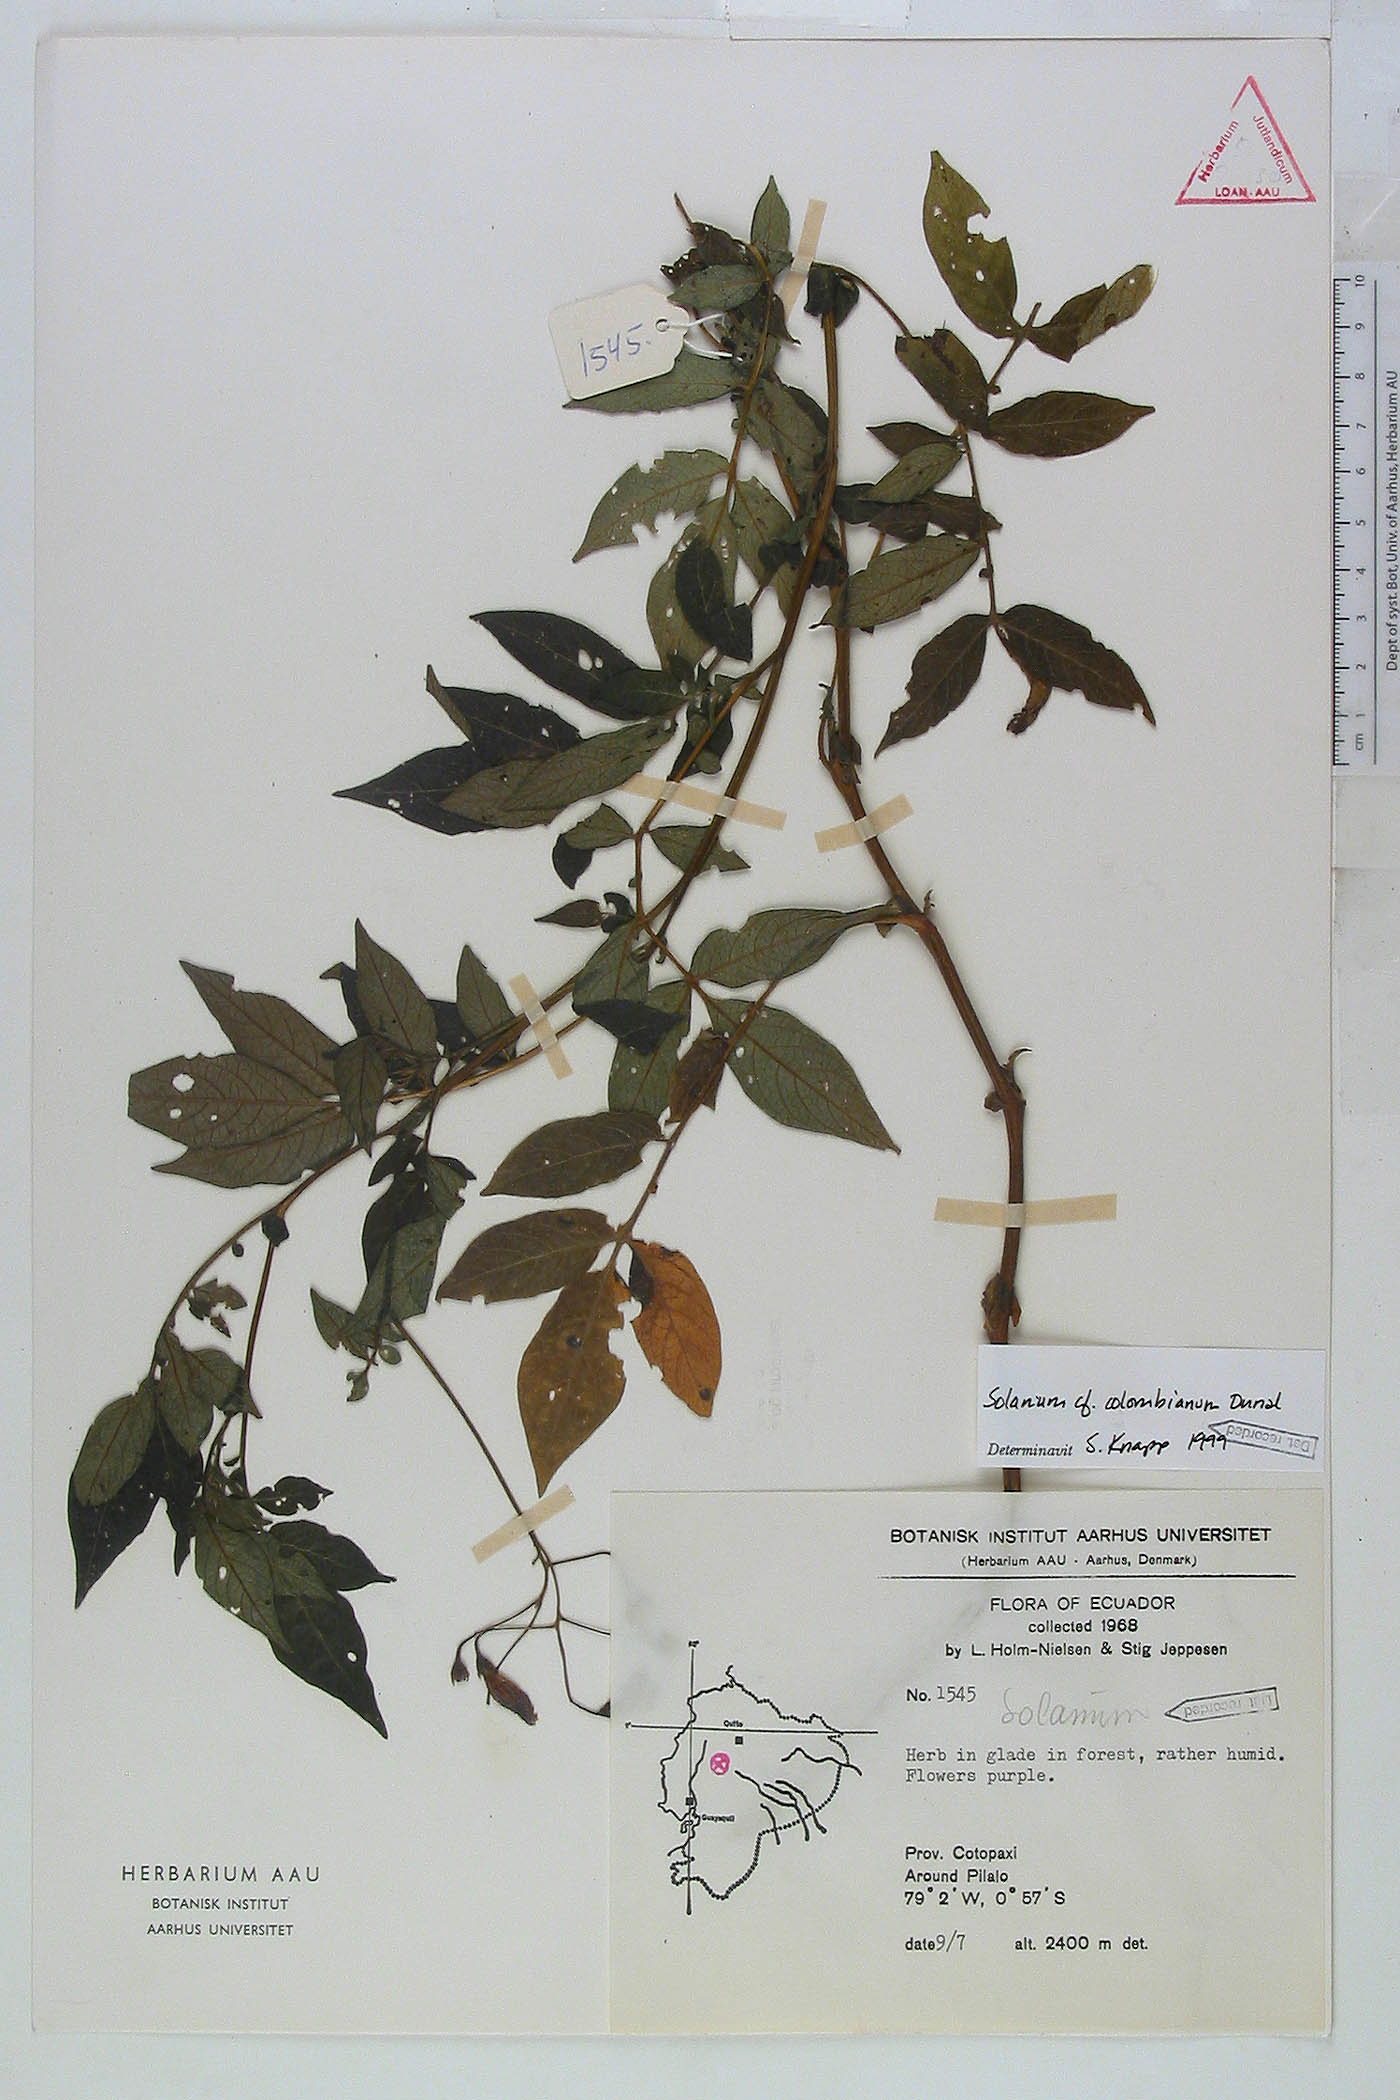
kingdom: Plantae
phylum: Tracheophyta
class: Magnoliopsida
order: Solanales
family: Solanaceae
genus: Solanum
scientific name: Solanum andreanum
